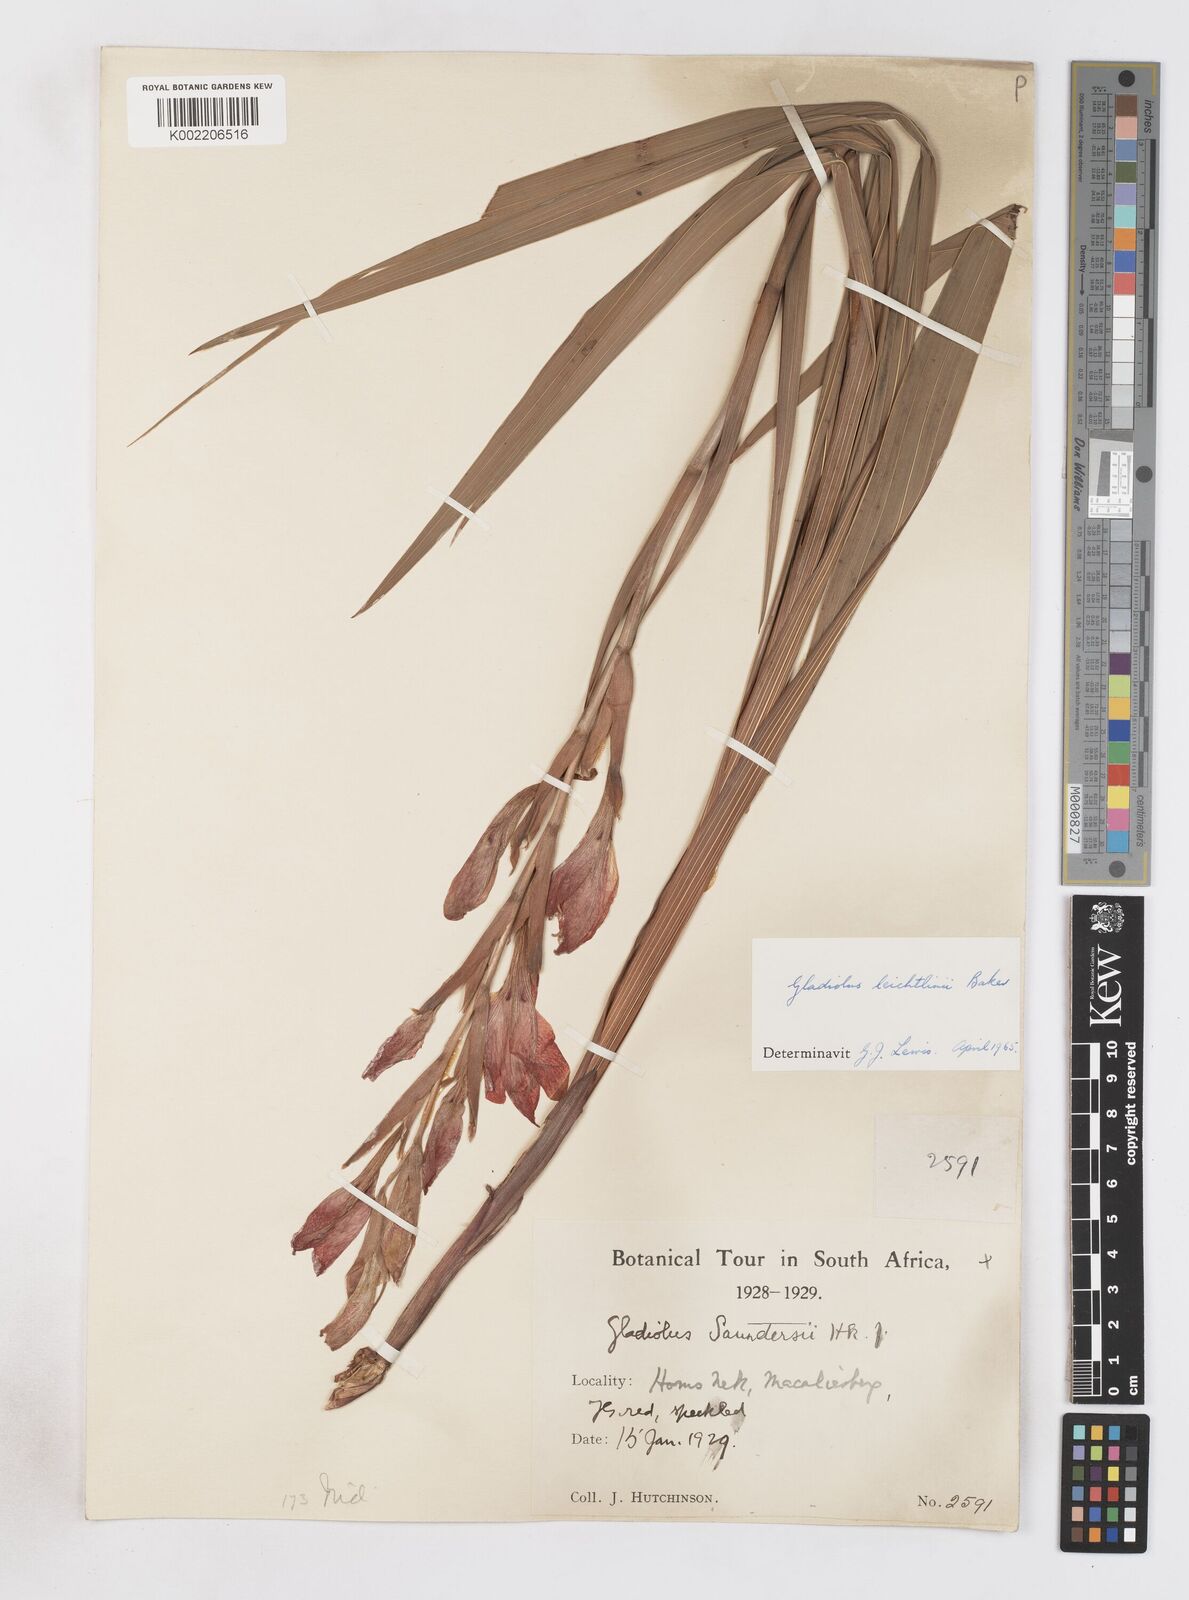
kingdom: Plantae
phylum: Tracheophyta
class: Liliopsida
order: Asparagales
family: Iridaceae
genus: Gladiolus
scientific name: Gladiolus dalenii
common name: Cornflag
